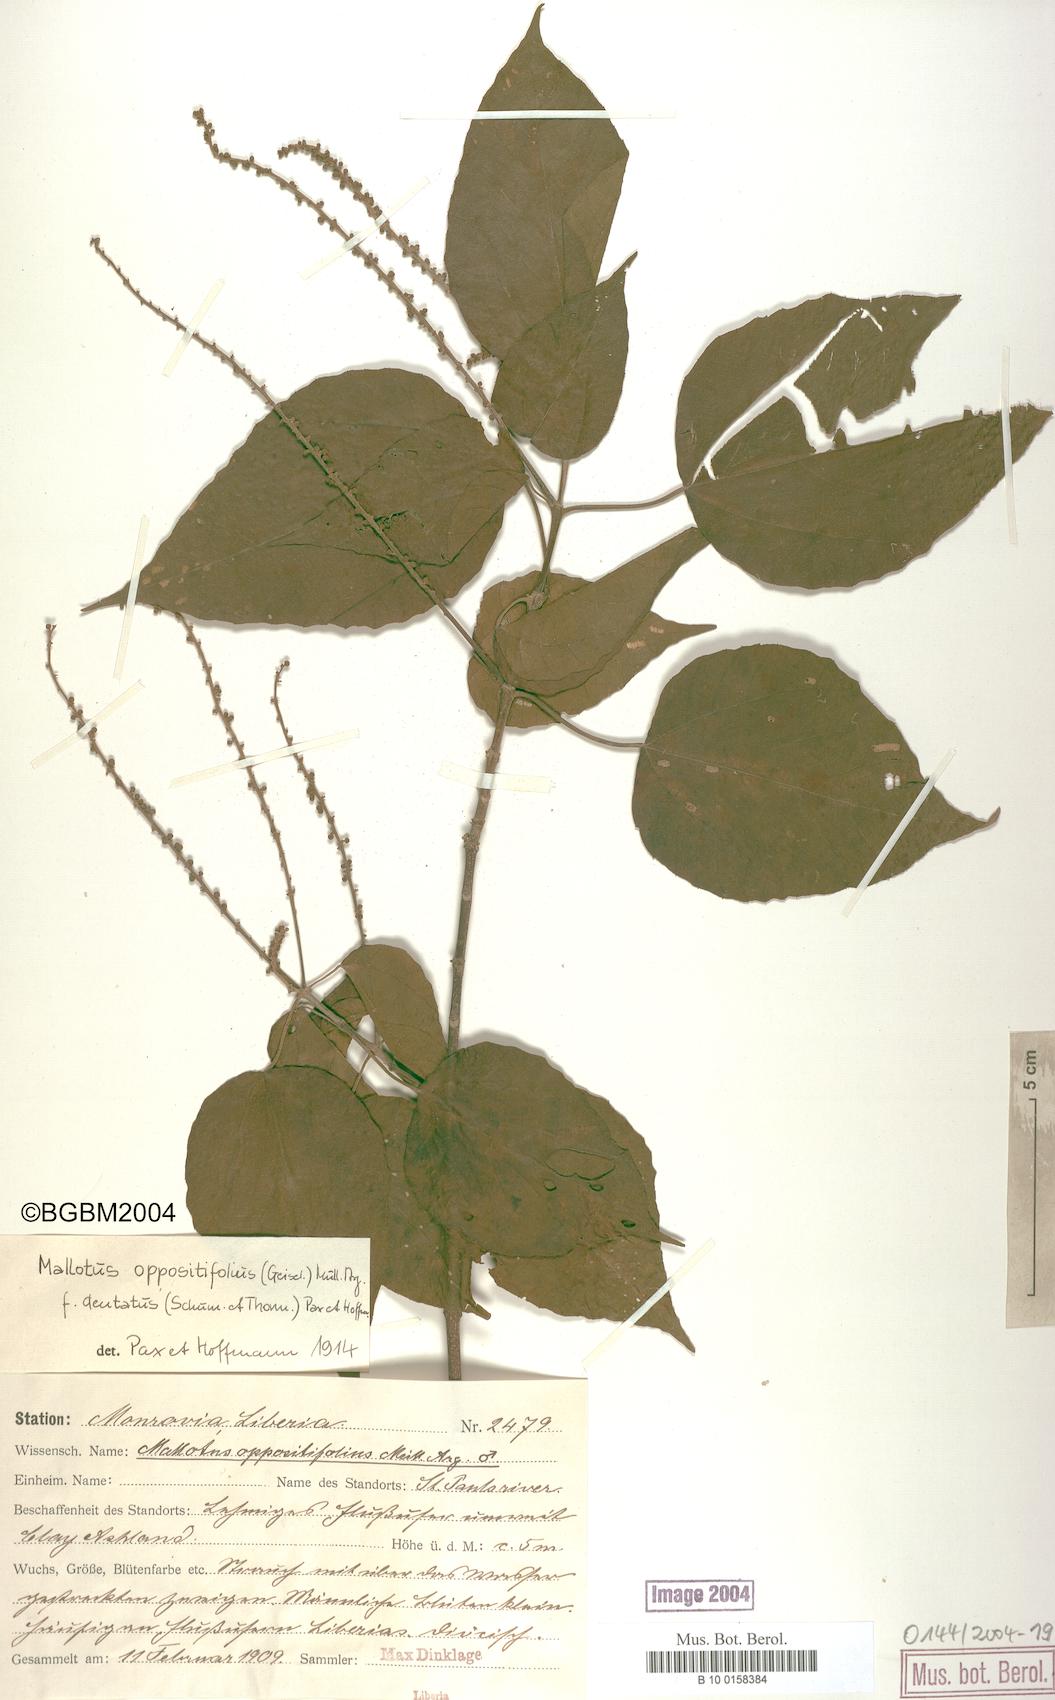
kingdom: Plantae
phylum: Tracheophyta
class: Magnoliopsida
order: Malpighiales
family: Euphorbiaceae
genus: Mallotus
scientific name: Mallotus oppositifolius
